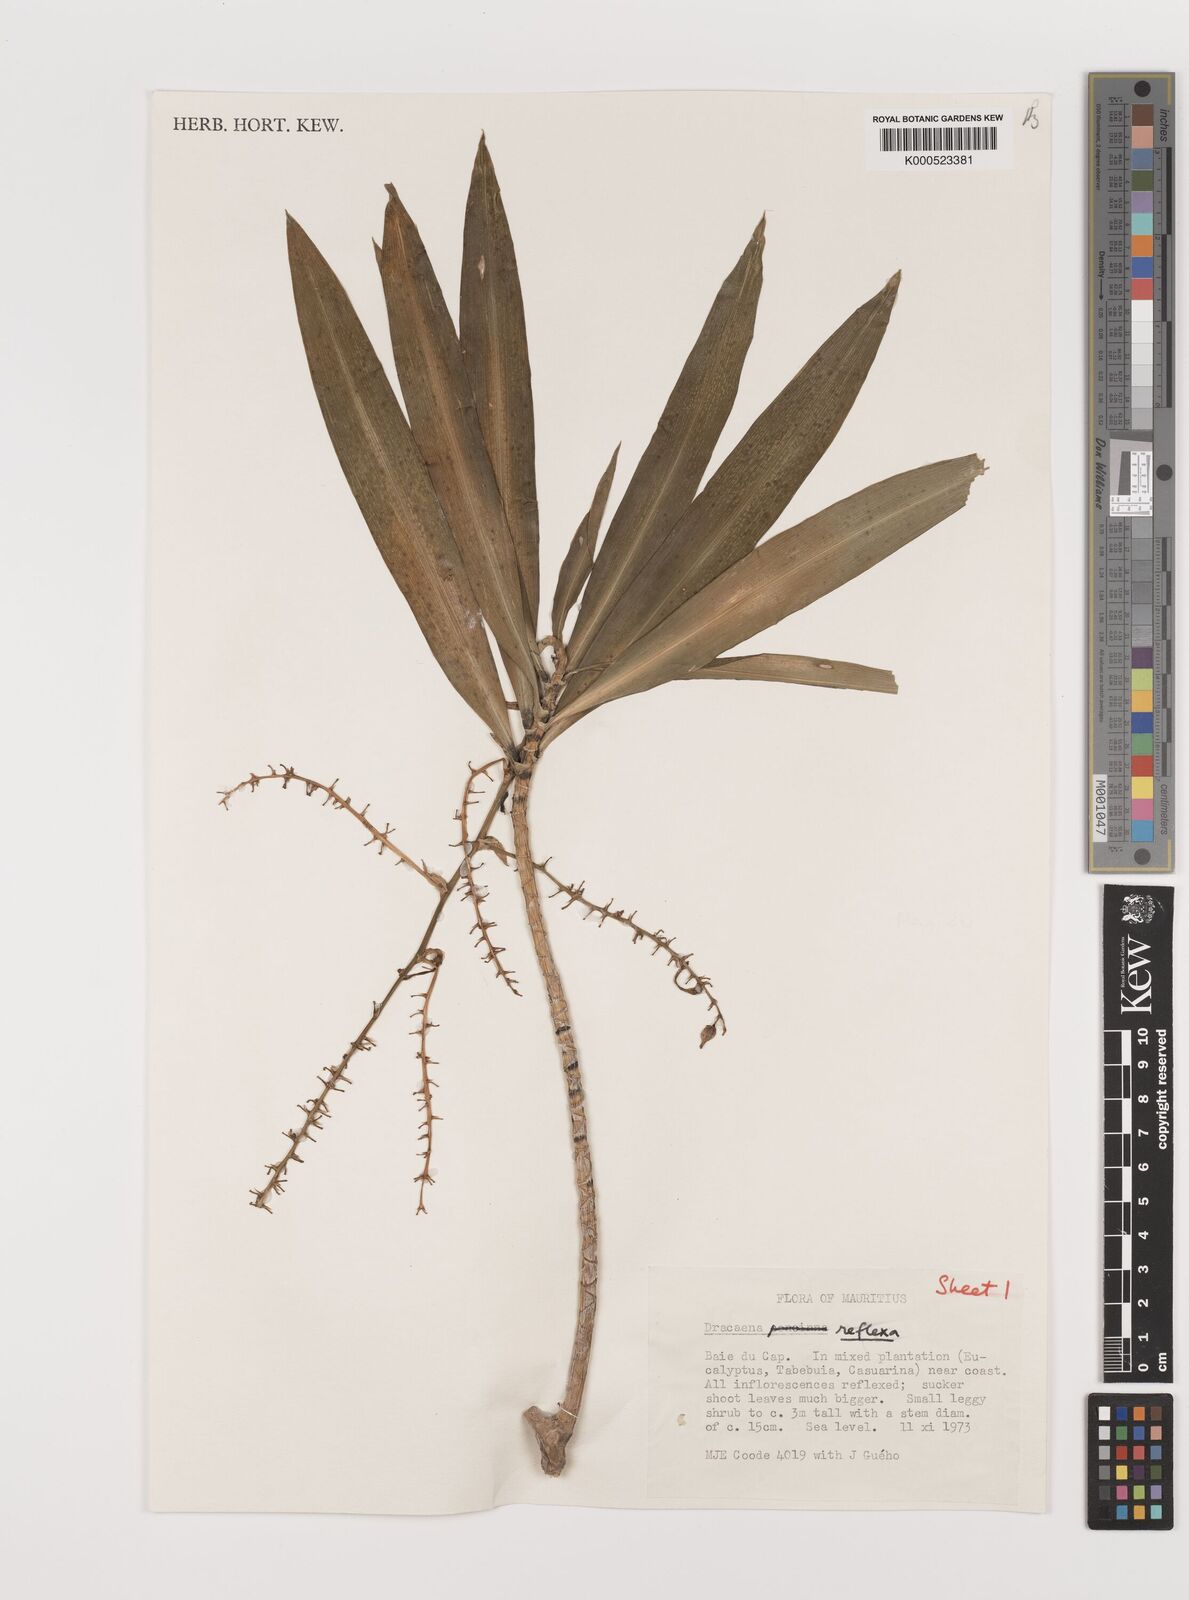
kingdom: Plantae
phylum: Tracheophyta
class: Liliopsida
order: Asparagales
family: Asparagaceae
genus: Dracaena
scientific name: Dracaena reflexa
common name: Song-of-india
